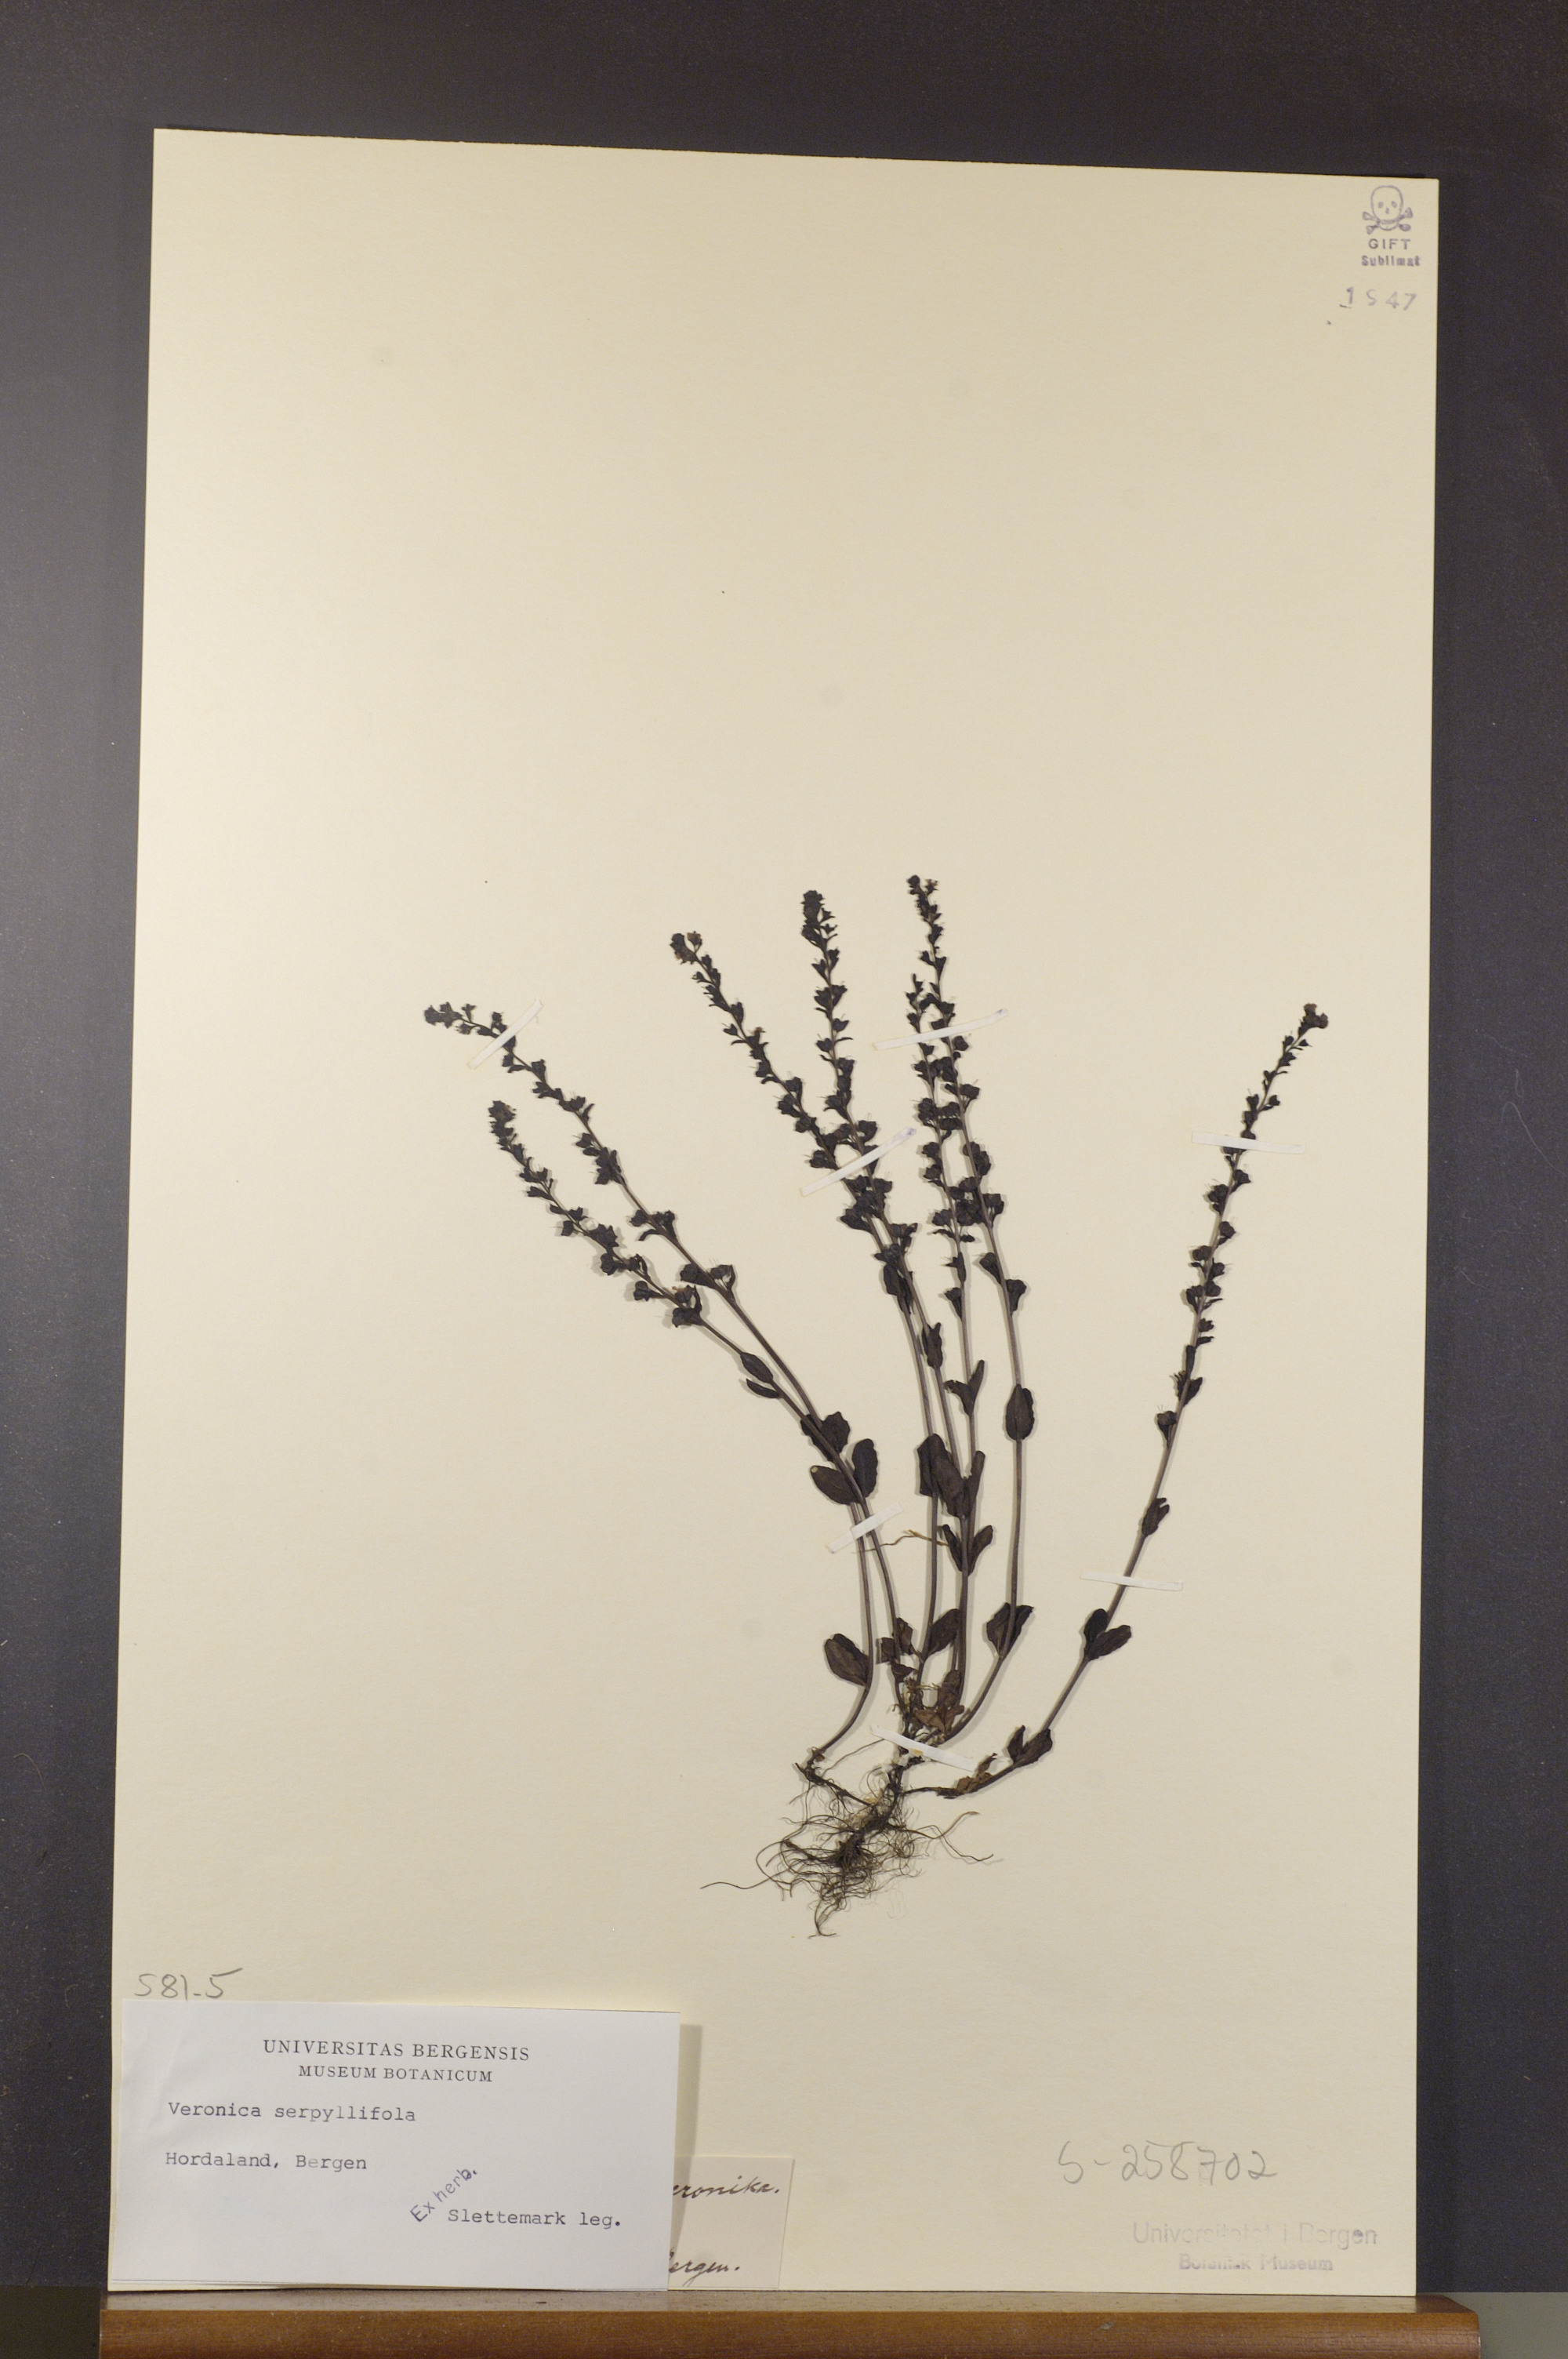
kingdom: Plantae
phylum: Tracheophyta
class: Magnoliopsida
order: Lamiales
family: Plantaginaceae
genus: Veronica
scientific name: Veronica serpyllifolia
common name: Thyme-leaved speedwell
